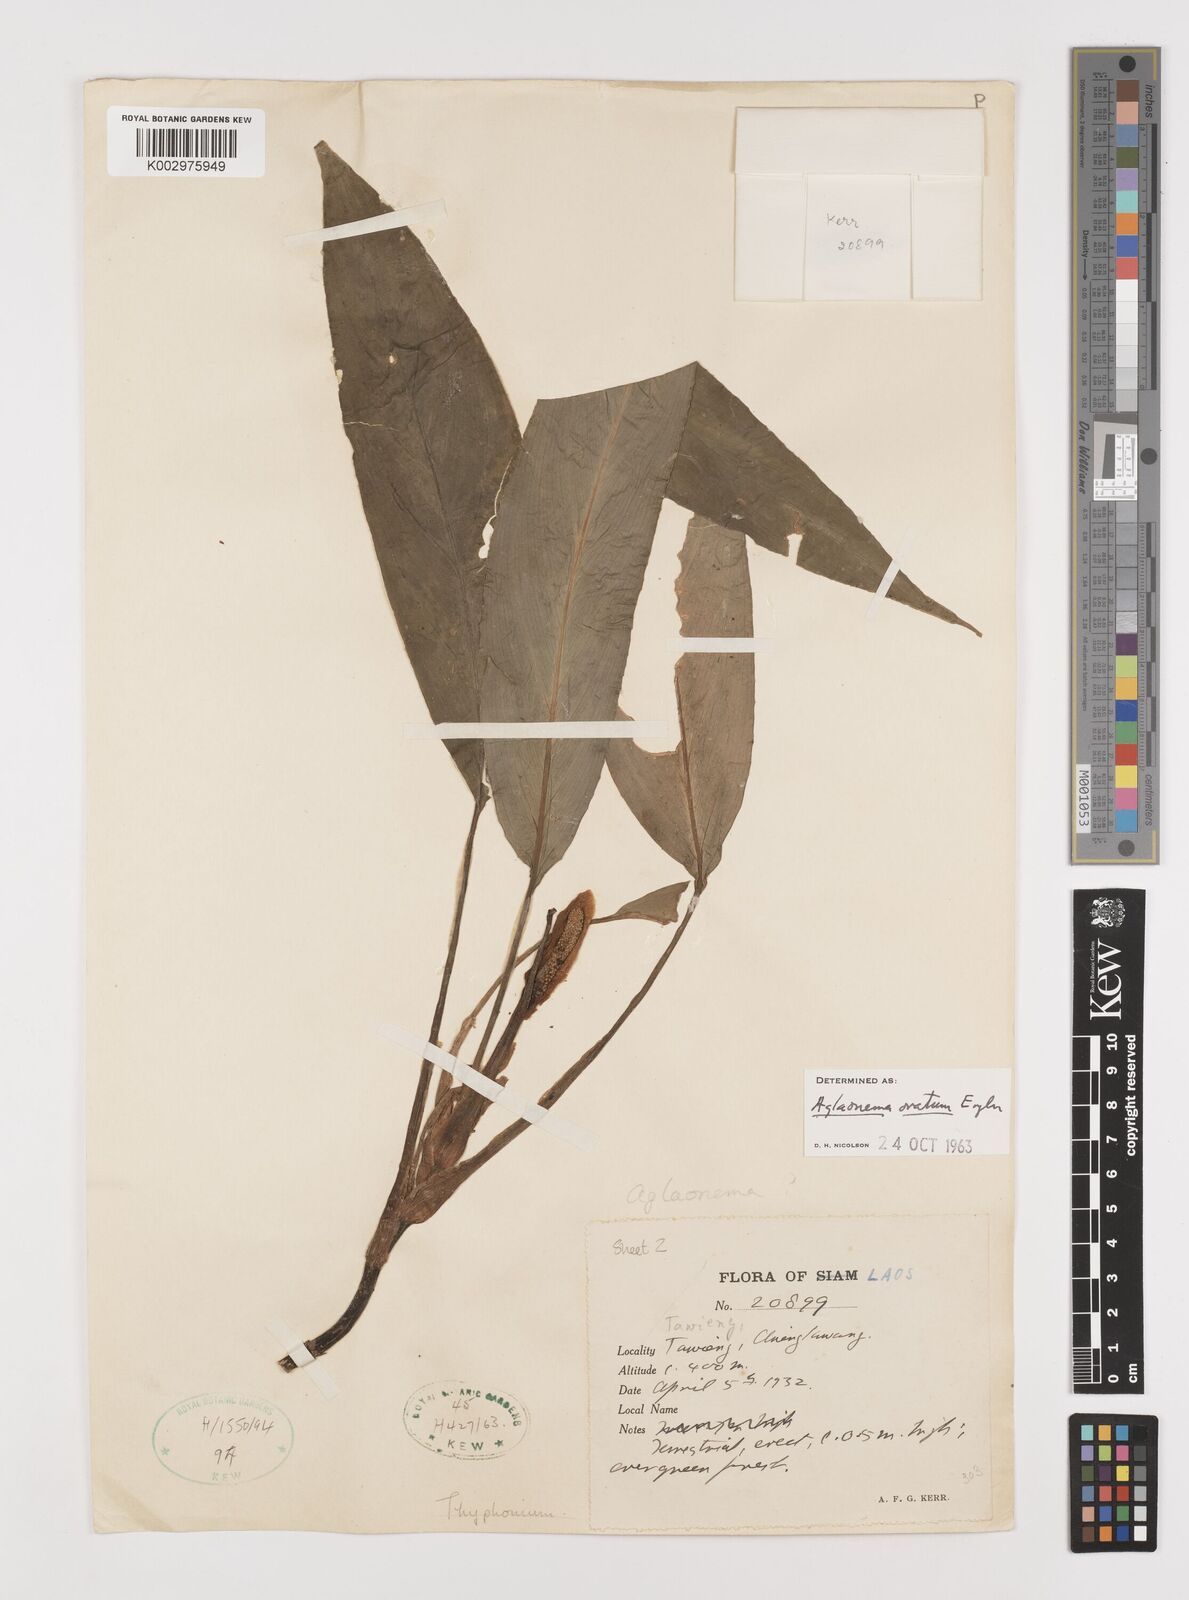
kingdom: Plantae
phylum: Tracheophyta
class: Liliopsida
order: Alismatales
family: Araceae
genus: Aglaonema
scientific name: Aglaonema ovatum
